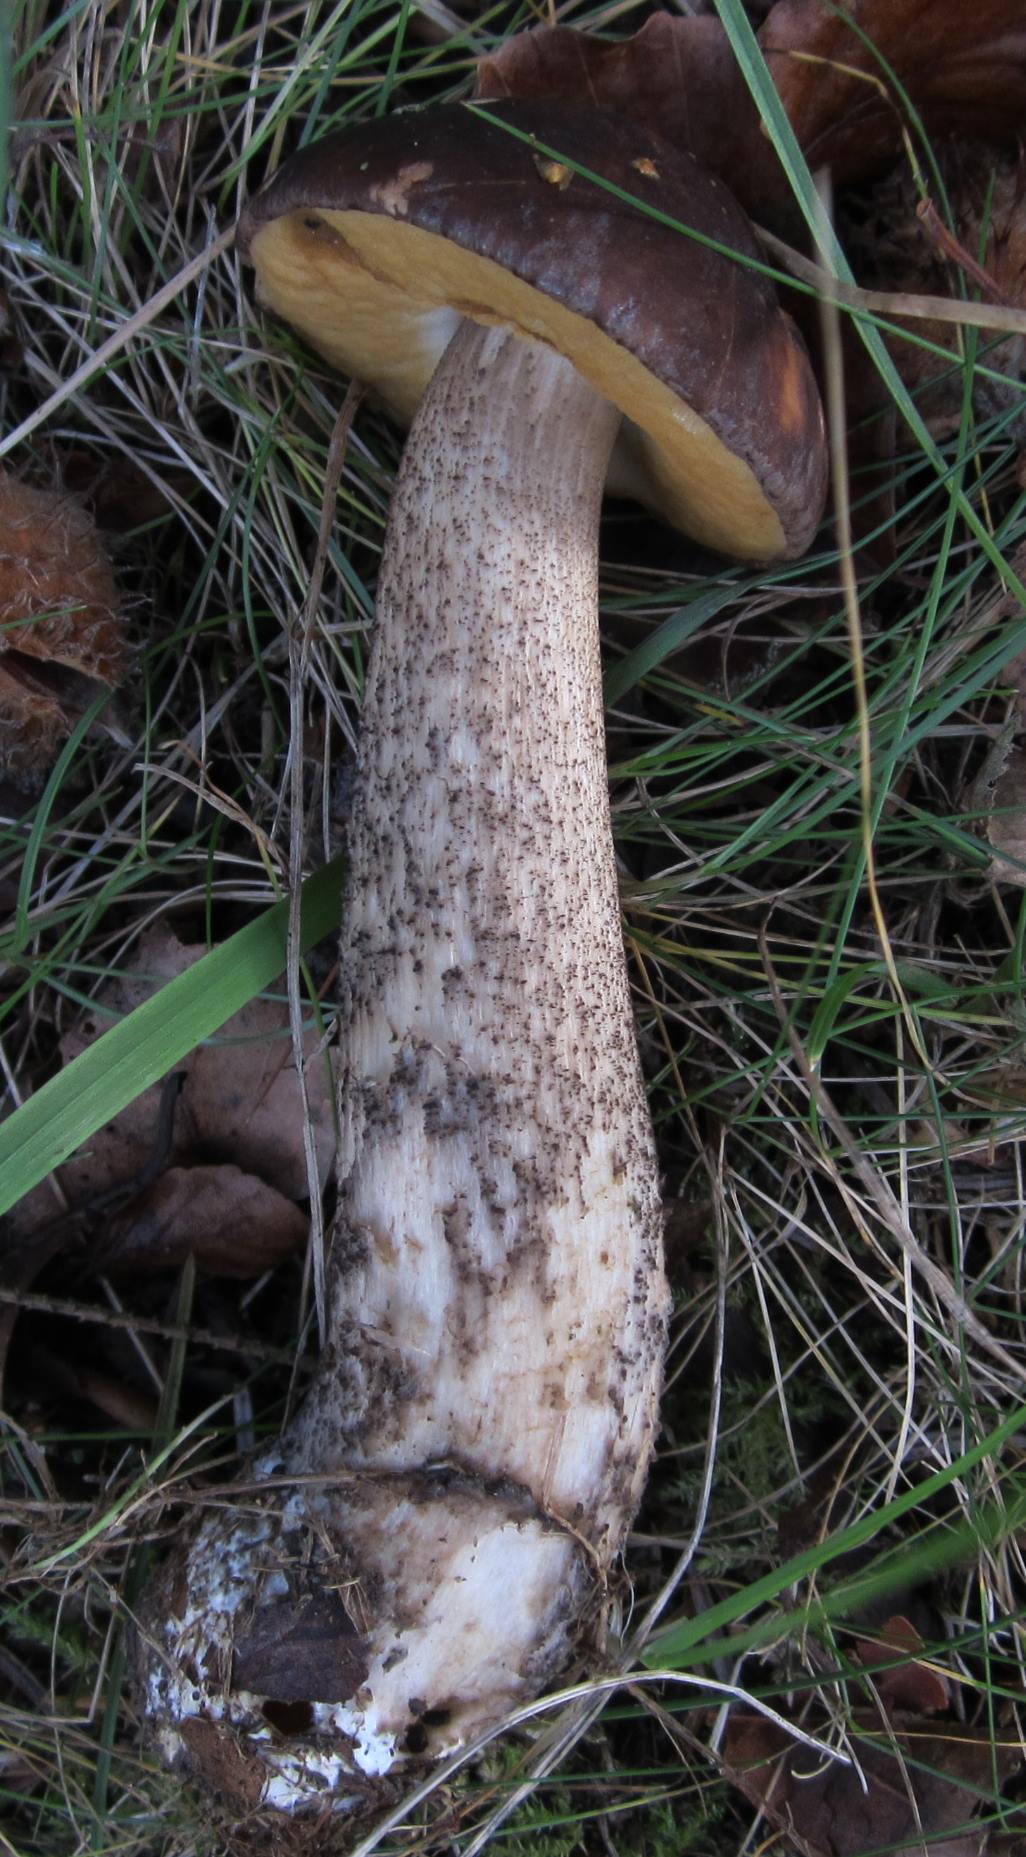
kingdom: Fungi
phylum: Basidiomycota
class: Agaricomycetes
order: Boletales
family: Boletaceae
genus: Leccinum
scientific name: Leccinum scabrum
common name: brun skælrørhat
